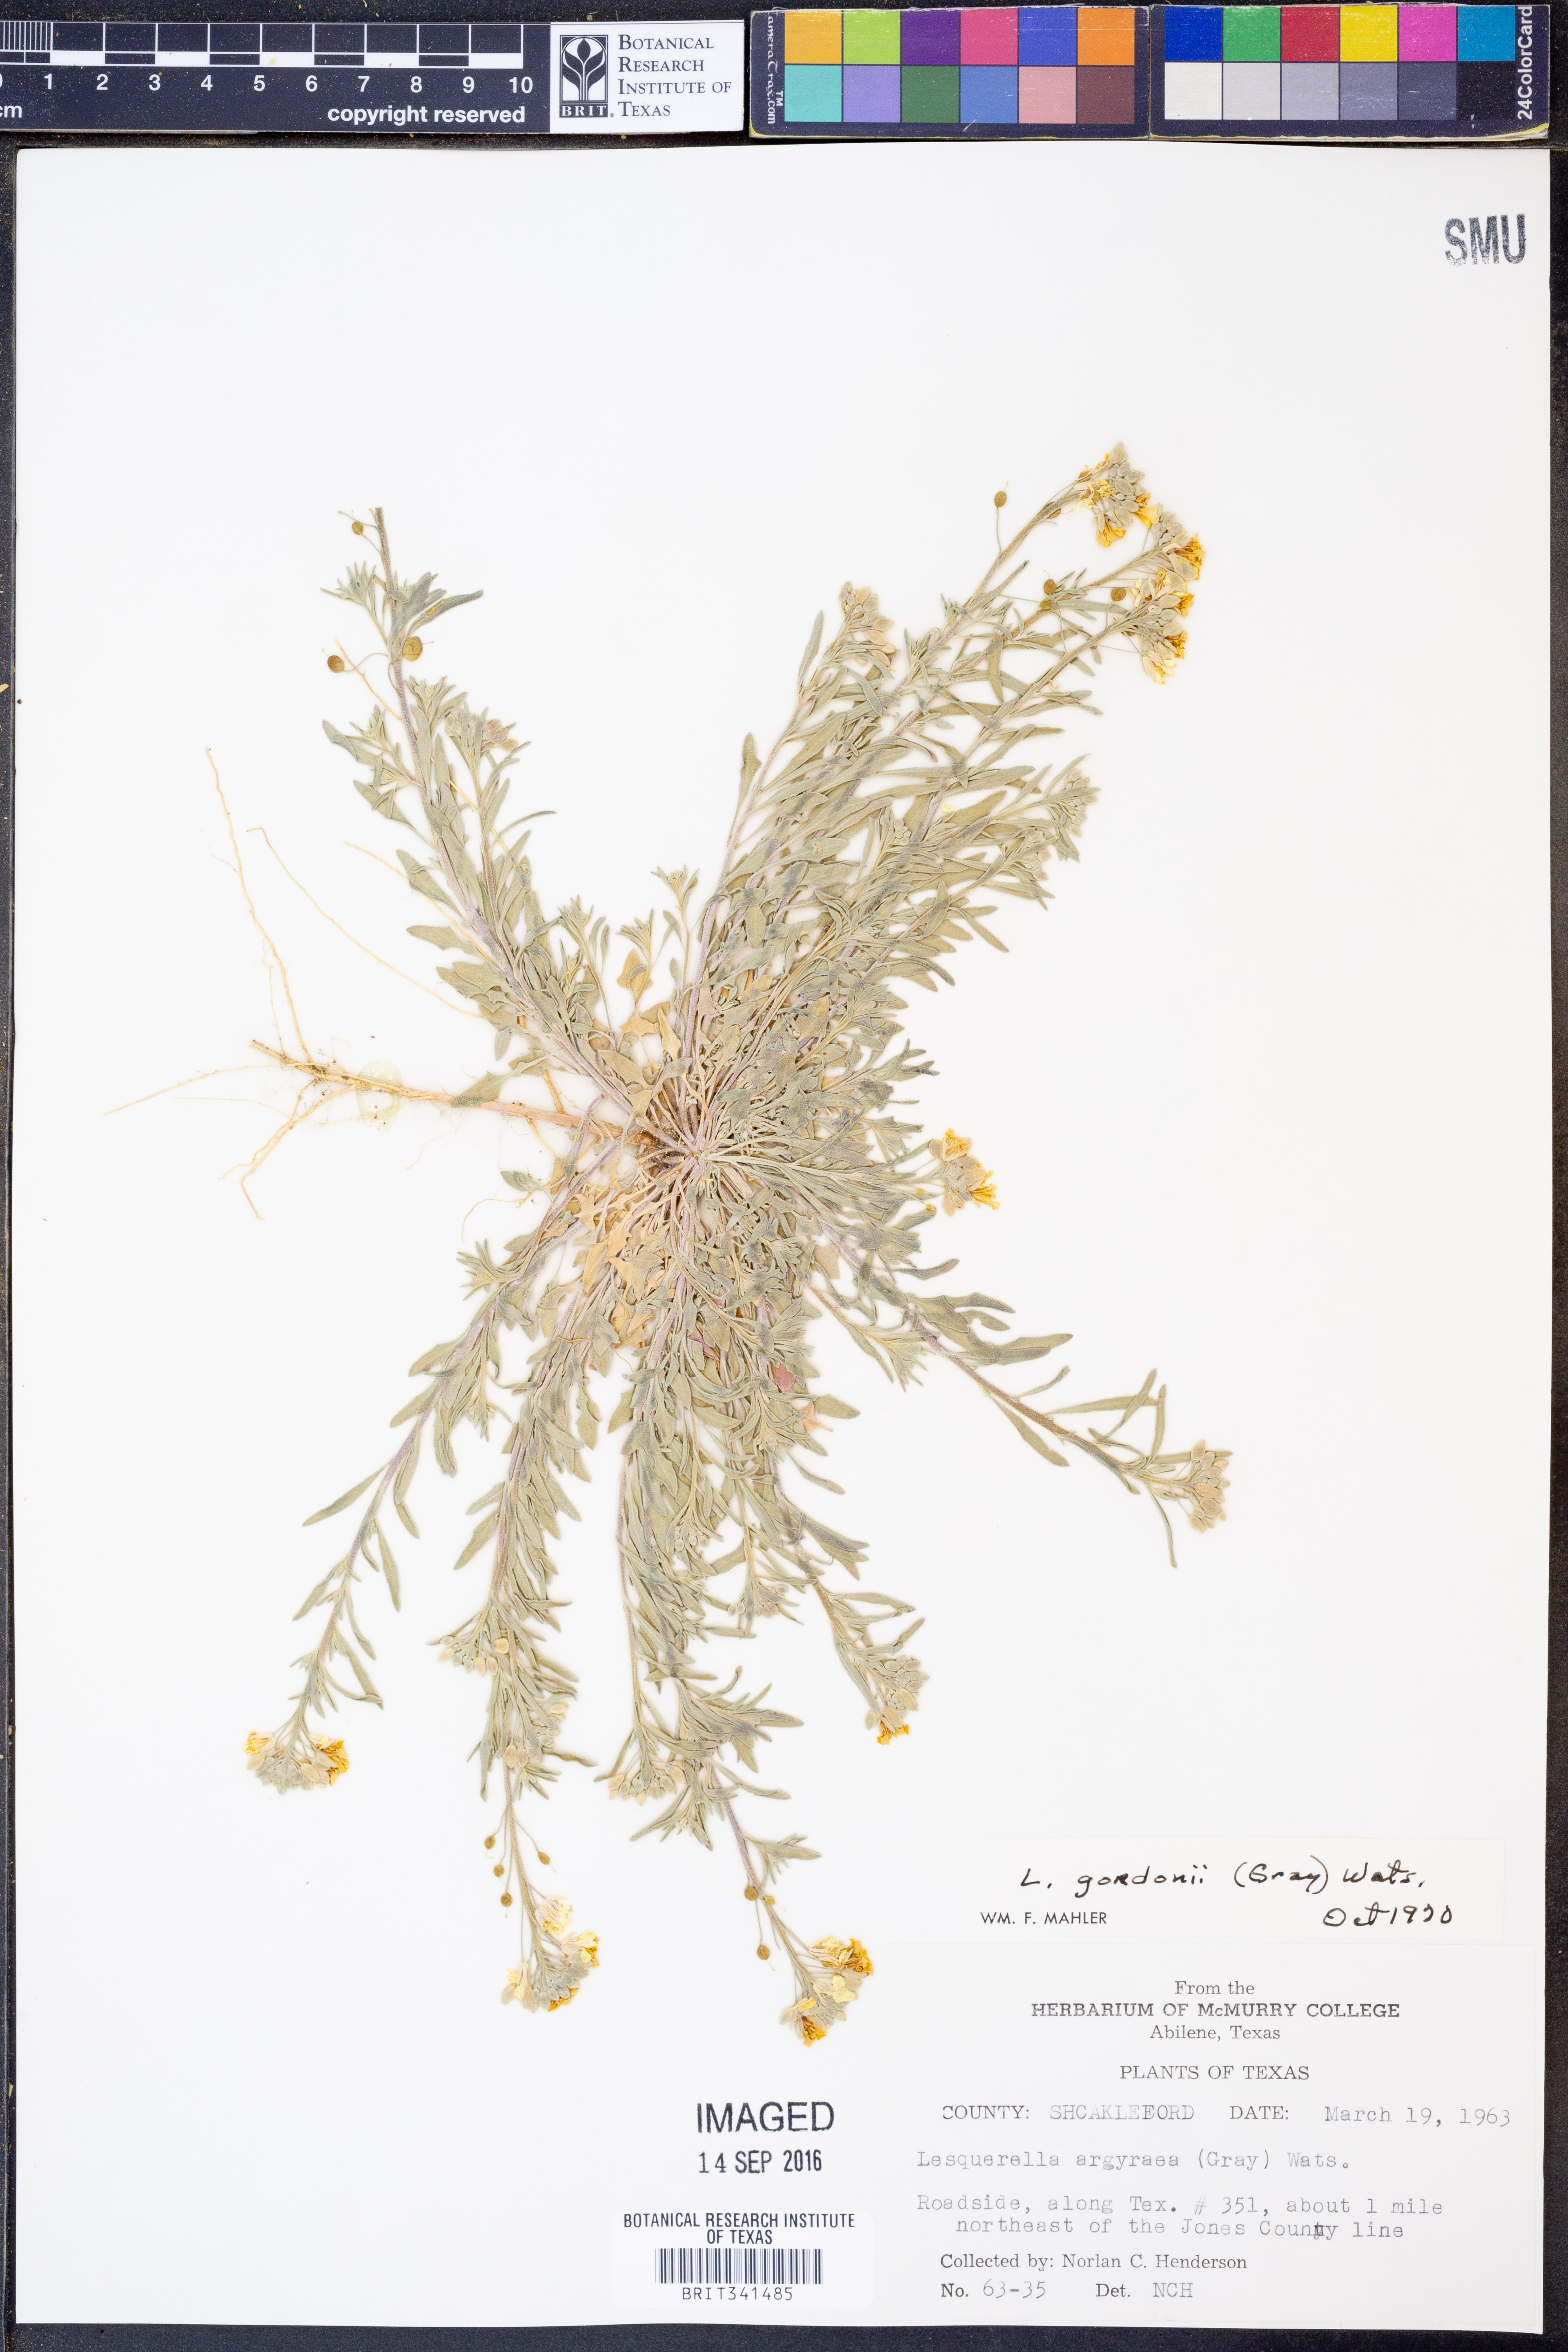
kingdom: Plantae
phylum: Tracheophyta
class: Magnoliopsida
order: Brassicales
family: Brassicaceae
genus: Physaria
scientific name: Physaria gordonii
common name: Gordon's bladderpod
